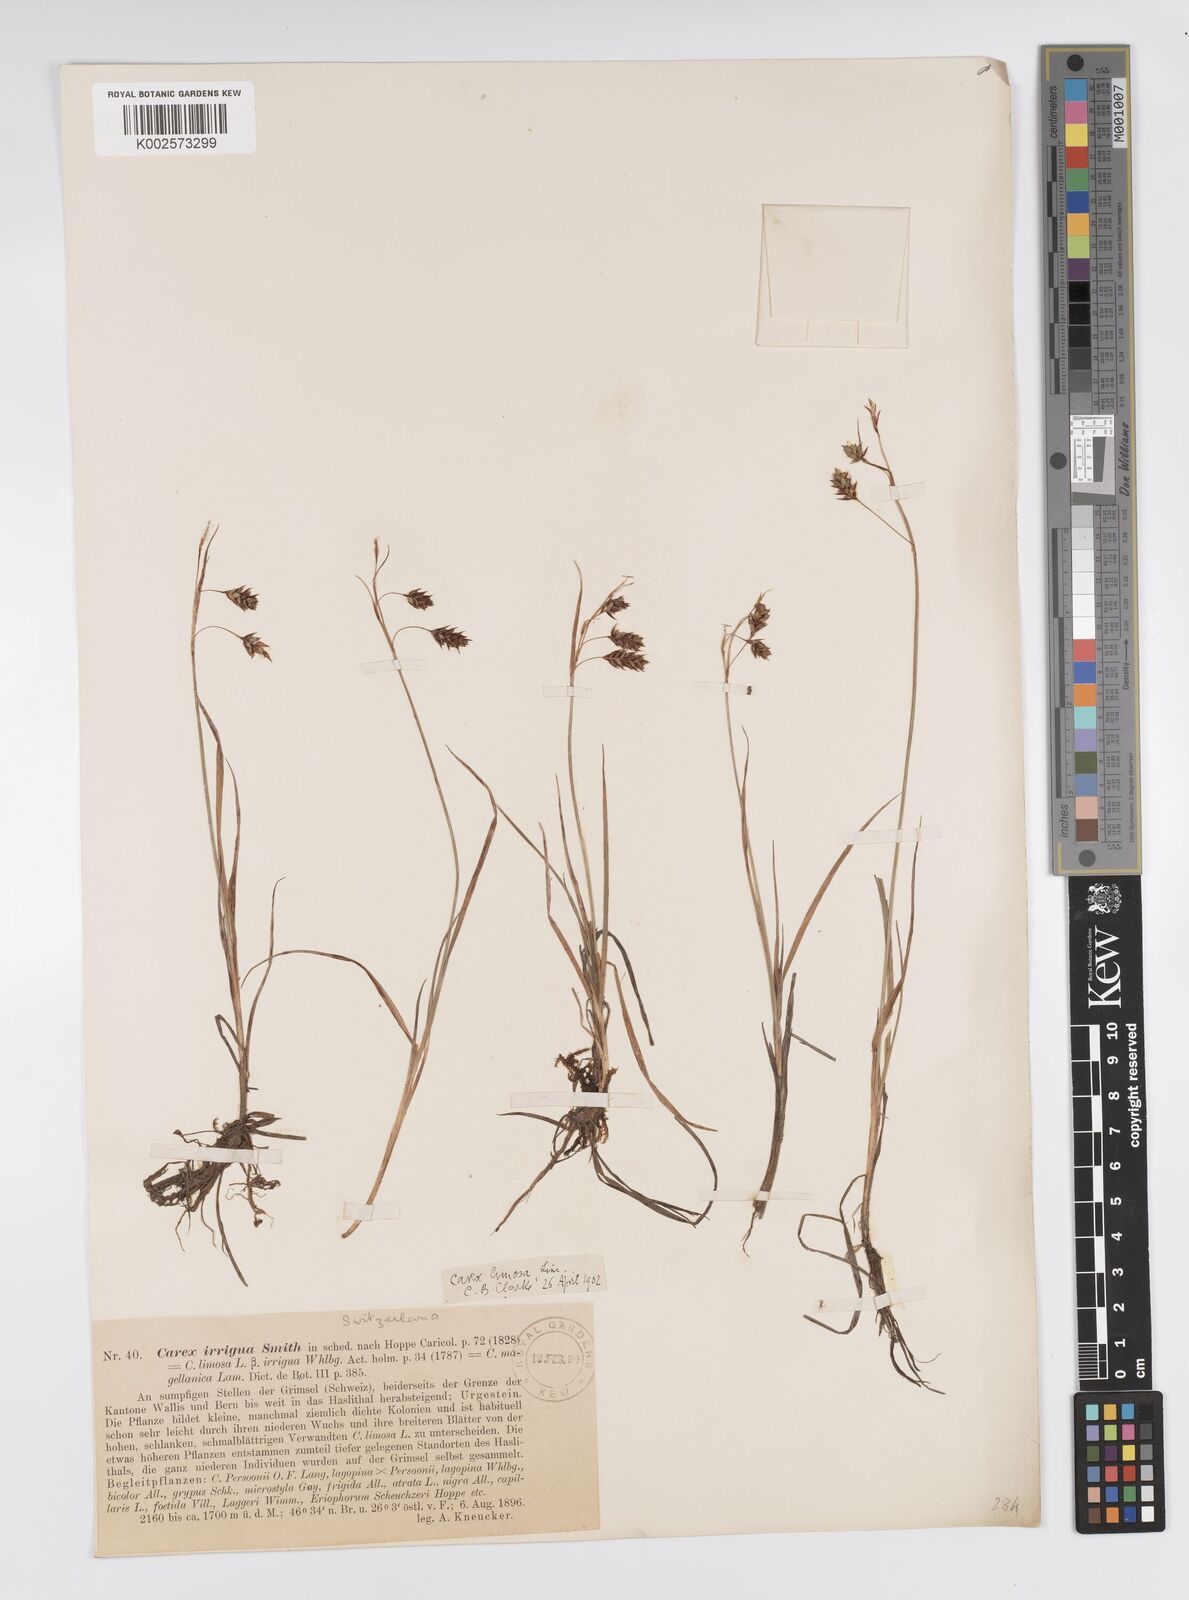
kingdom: Plantae
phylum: Tracheophyta
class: Liliopsida
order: Poales
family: Cyperaceae
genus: Carex
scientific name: Carex magellanica
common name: Bog sedge
